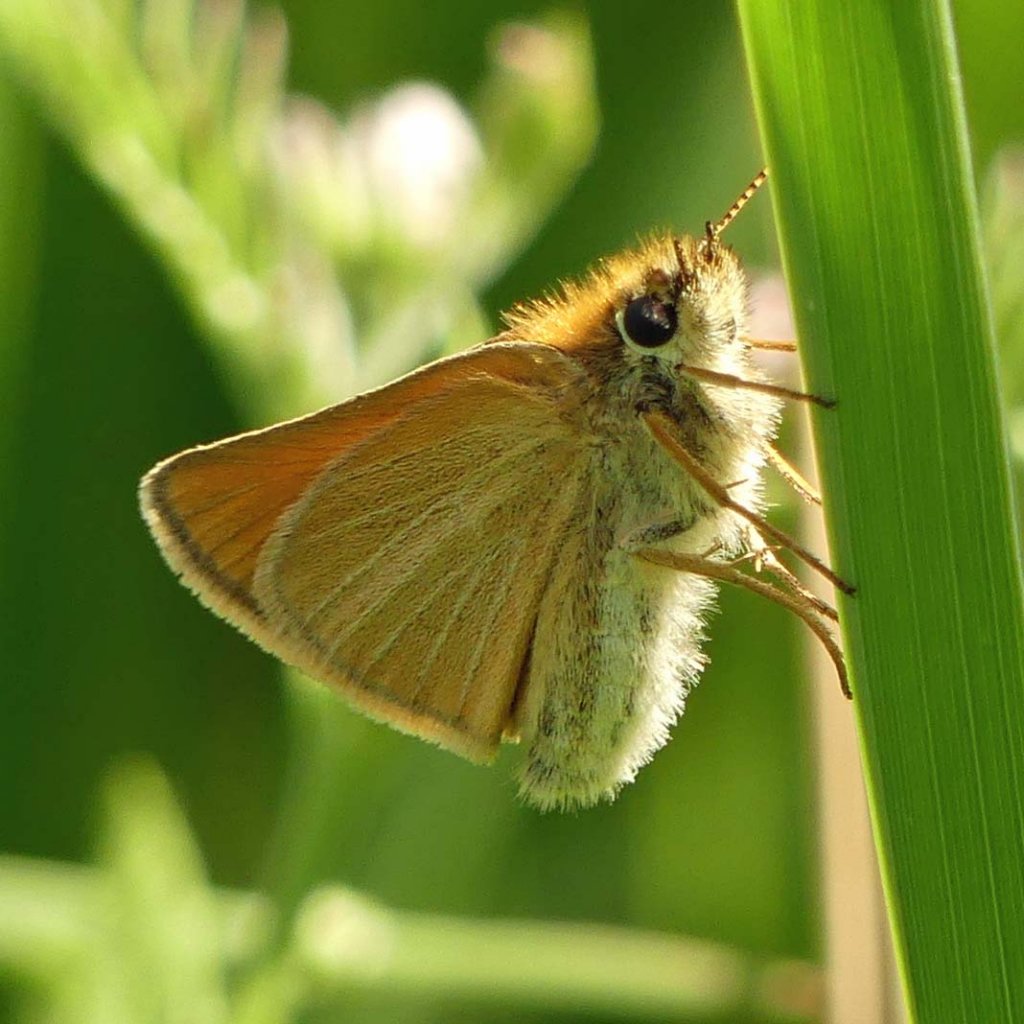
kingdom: Animalia
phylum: Arthropoda
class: Insecta
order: Lepidoptera
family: Hesperiidae
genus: Thymelicus
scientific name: Thymelicus lineola
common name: European Skipper
